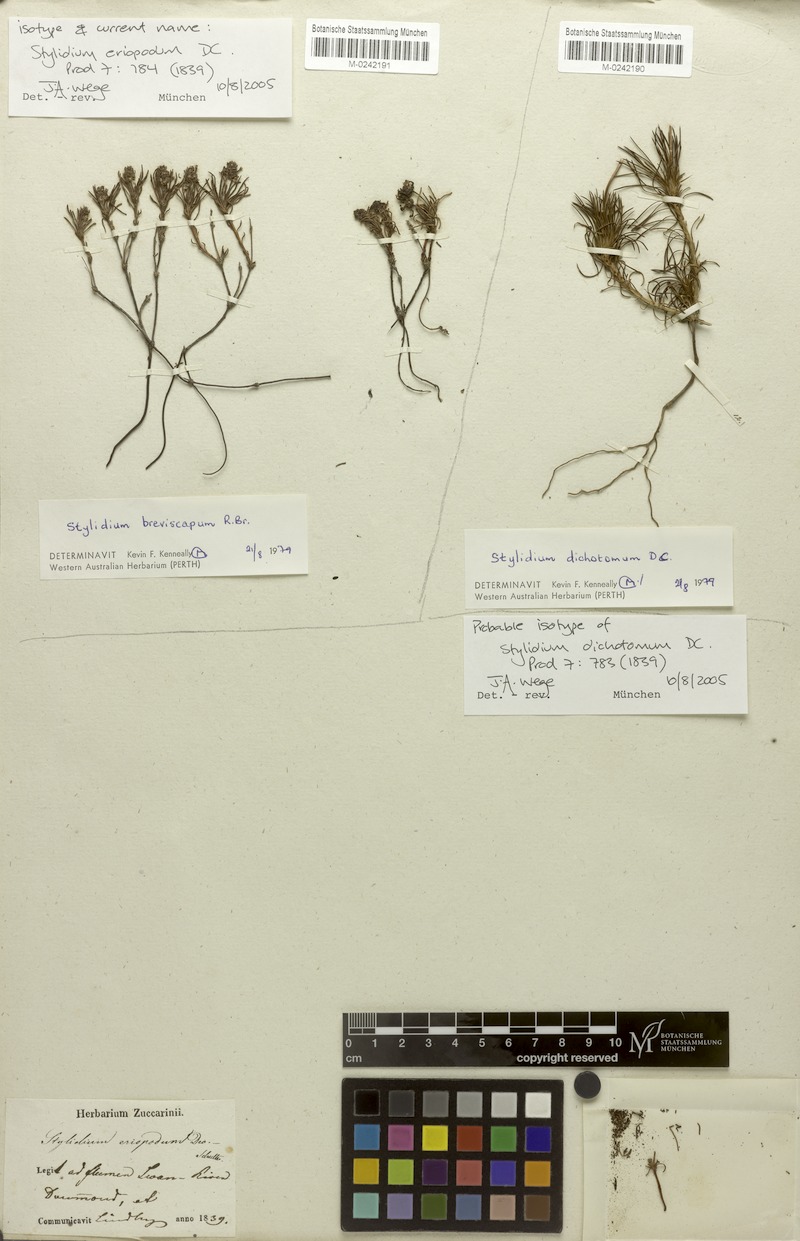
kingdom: Plantae
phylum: Tracheophyta
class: Magnoliopsida
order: Asterales
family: Stylidiaceae
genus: Stylidium
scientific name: Stylidium breviscapum
